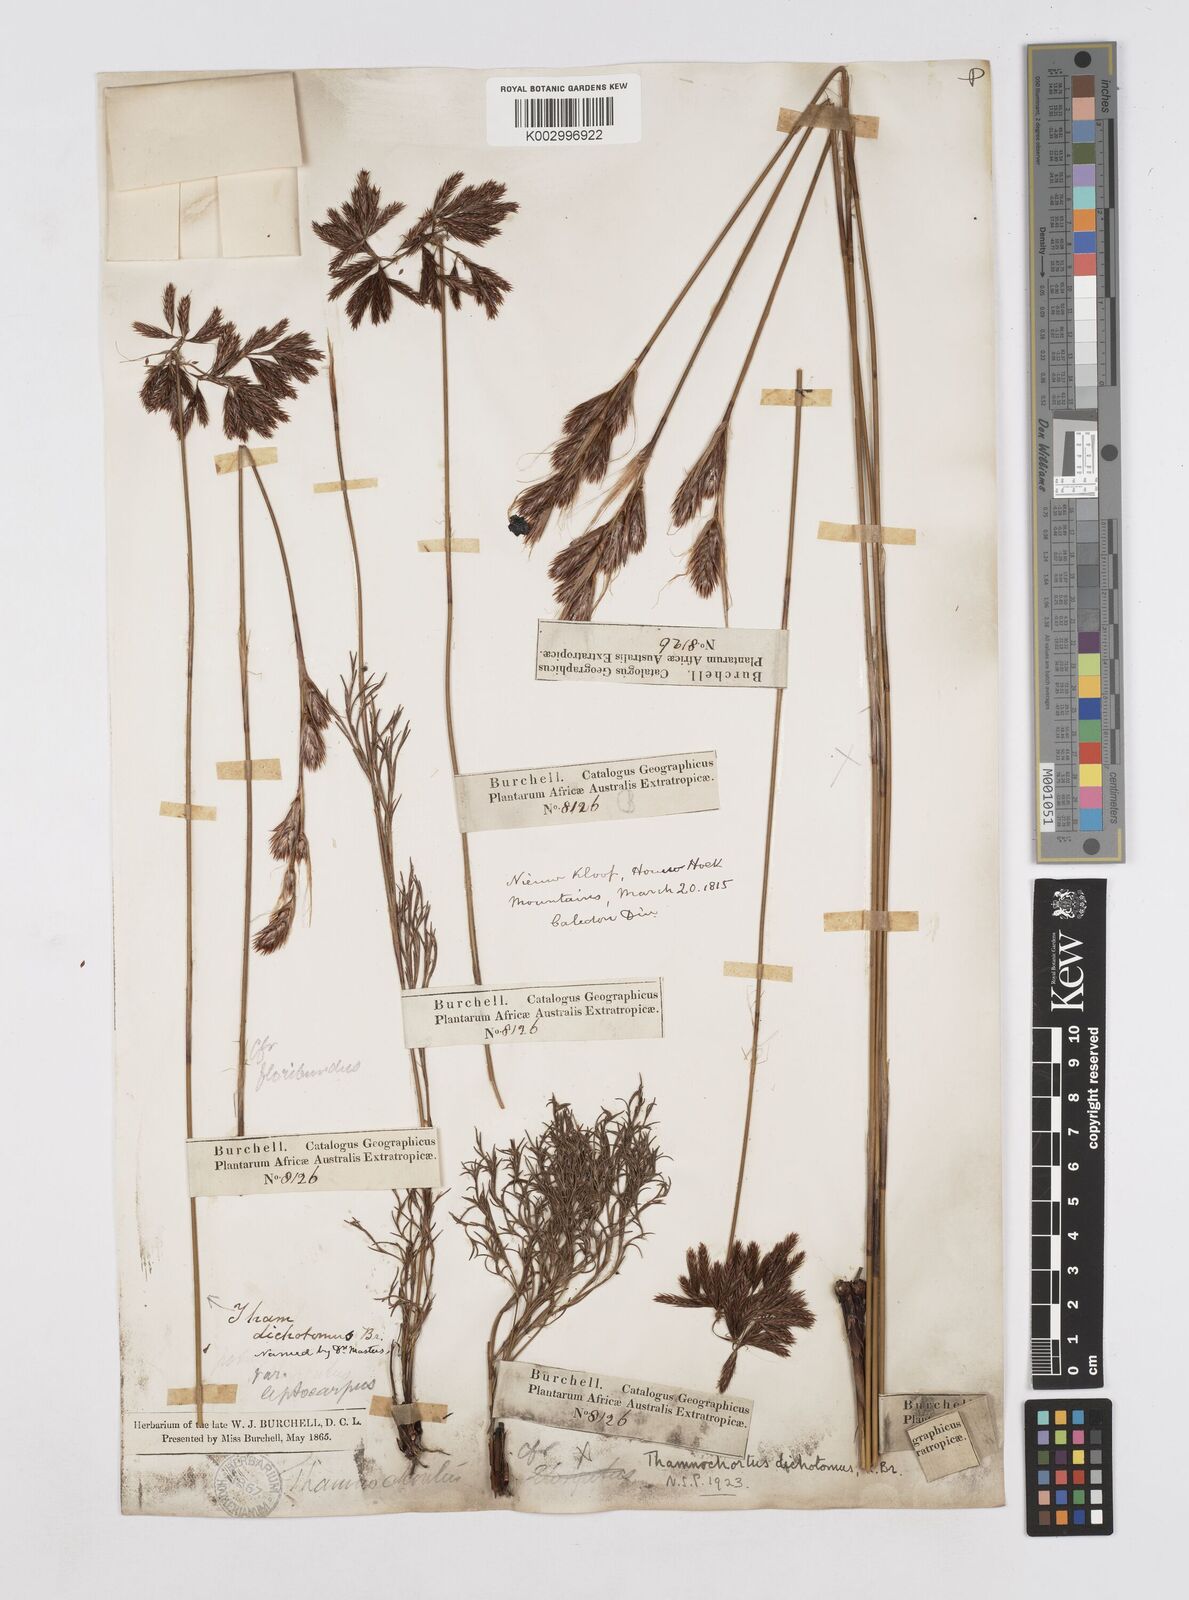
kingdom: Plantae
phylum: Tracheophyta
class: Liliopsida
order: Poales
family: Restionaceae
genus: Thamnochortus
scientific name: Thamnochortus lucens
